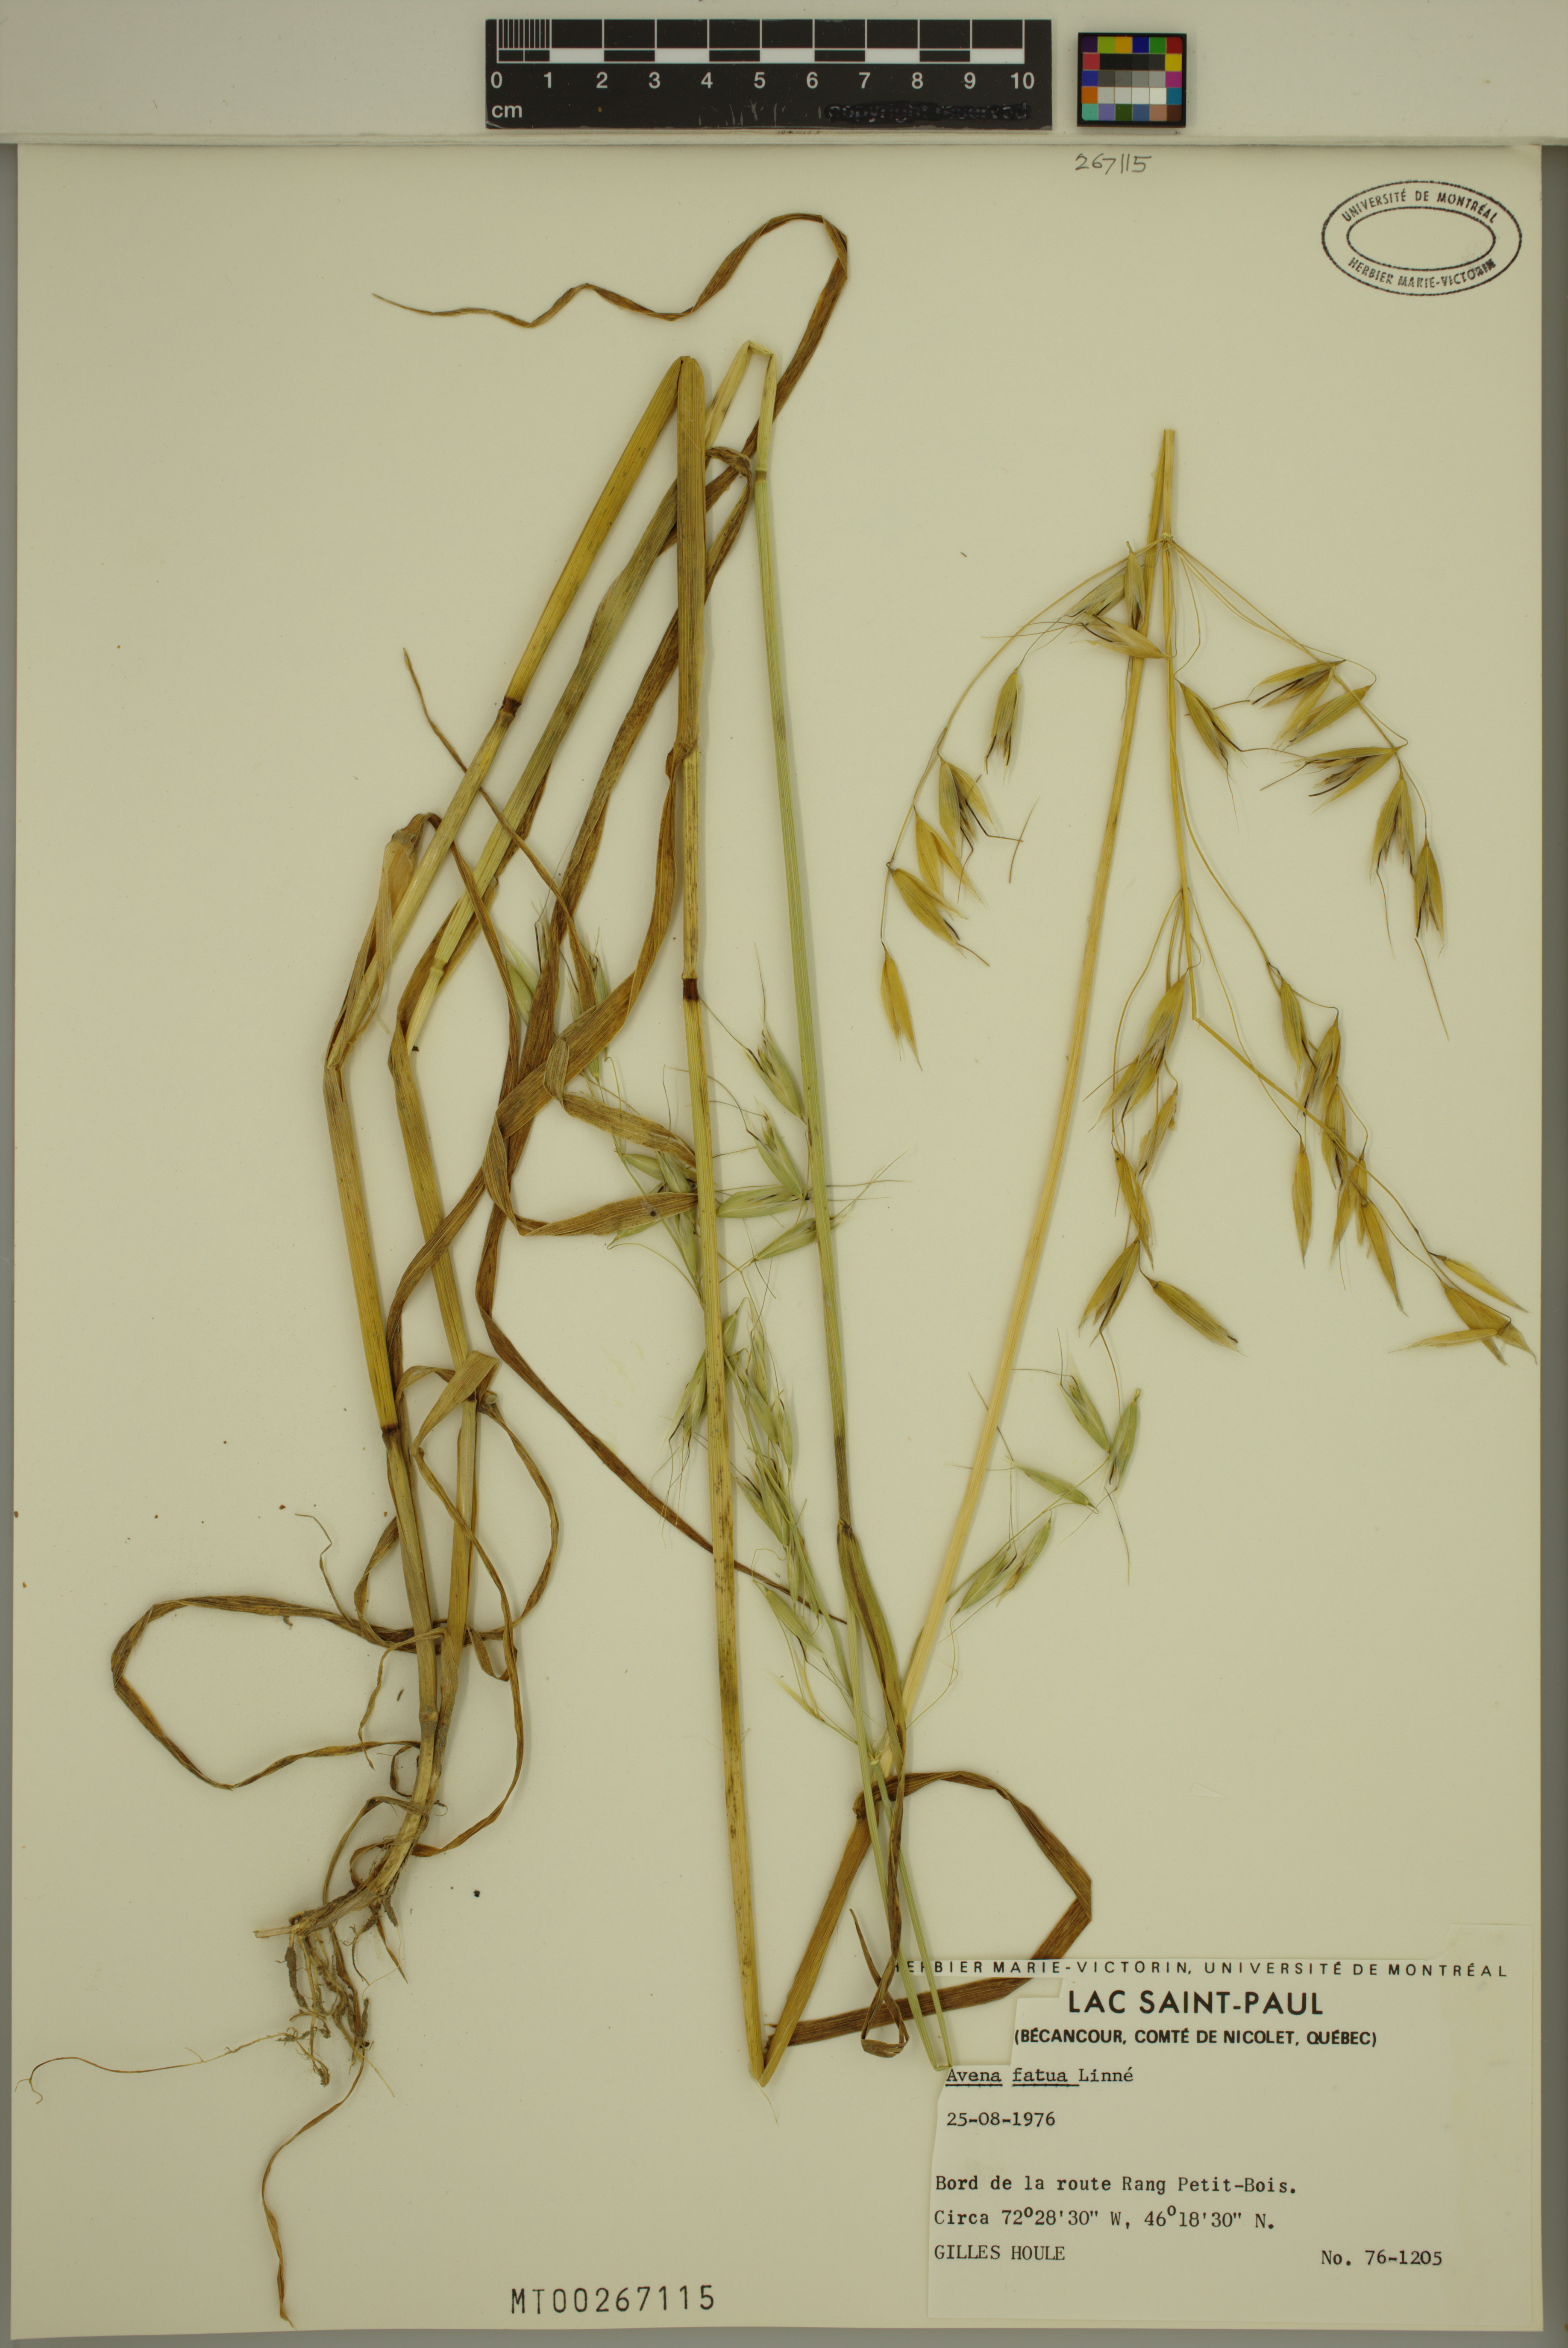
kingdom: Plantae
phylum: Tracheophyta
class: Liliopsida
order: Poales
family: Poaceae
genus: Avena
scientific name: Avena fatua
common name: Wild oat
